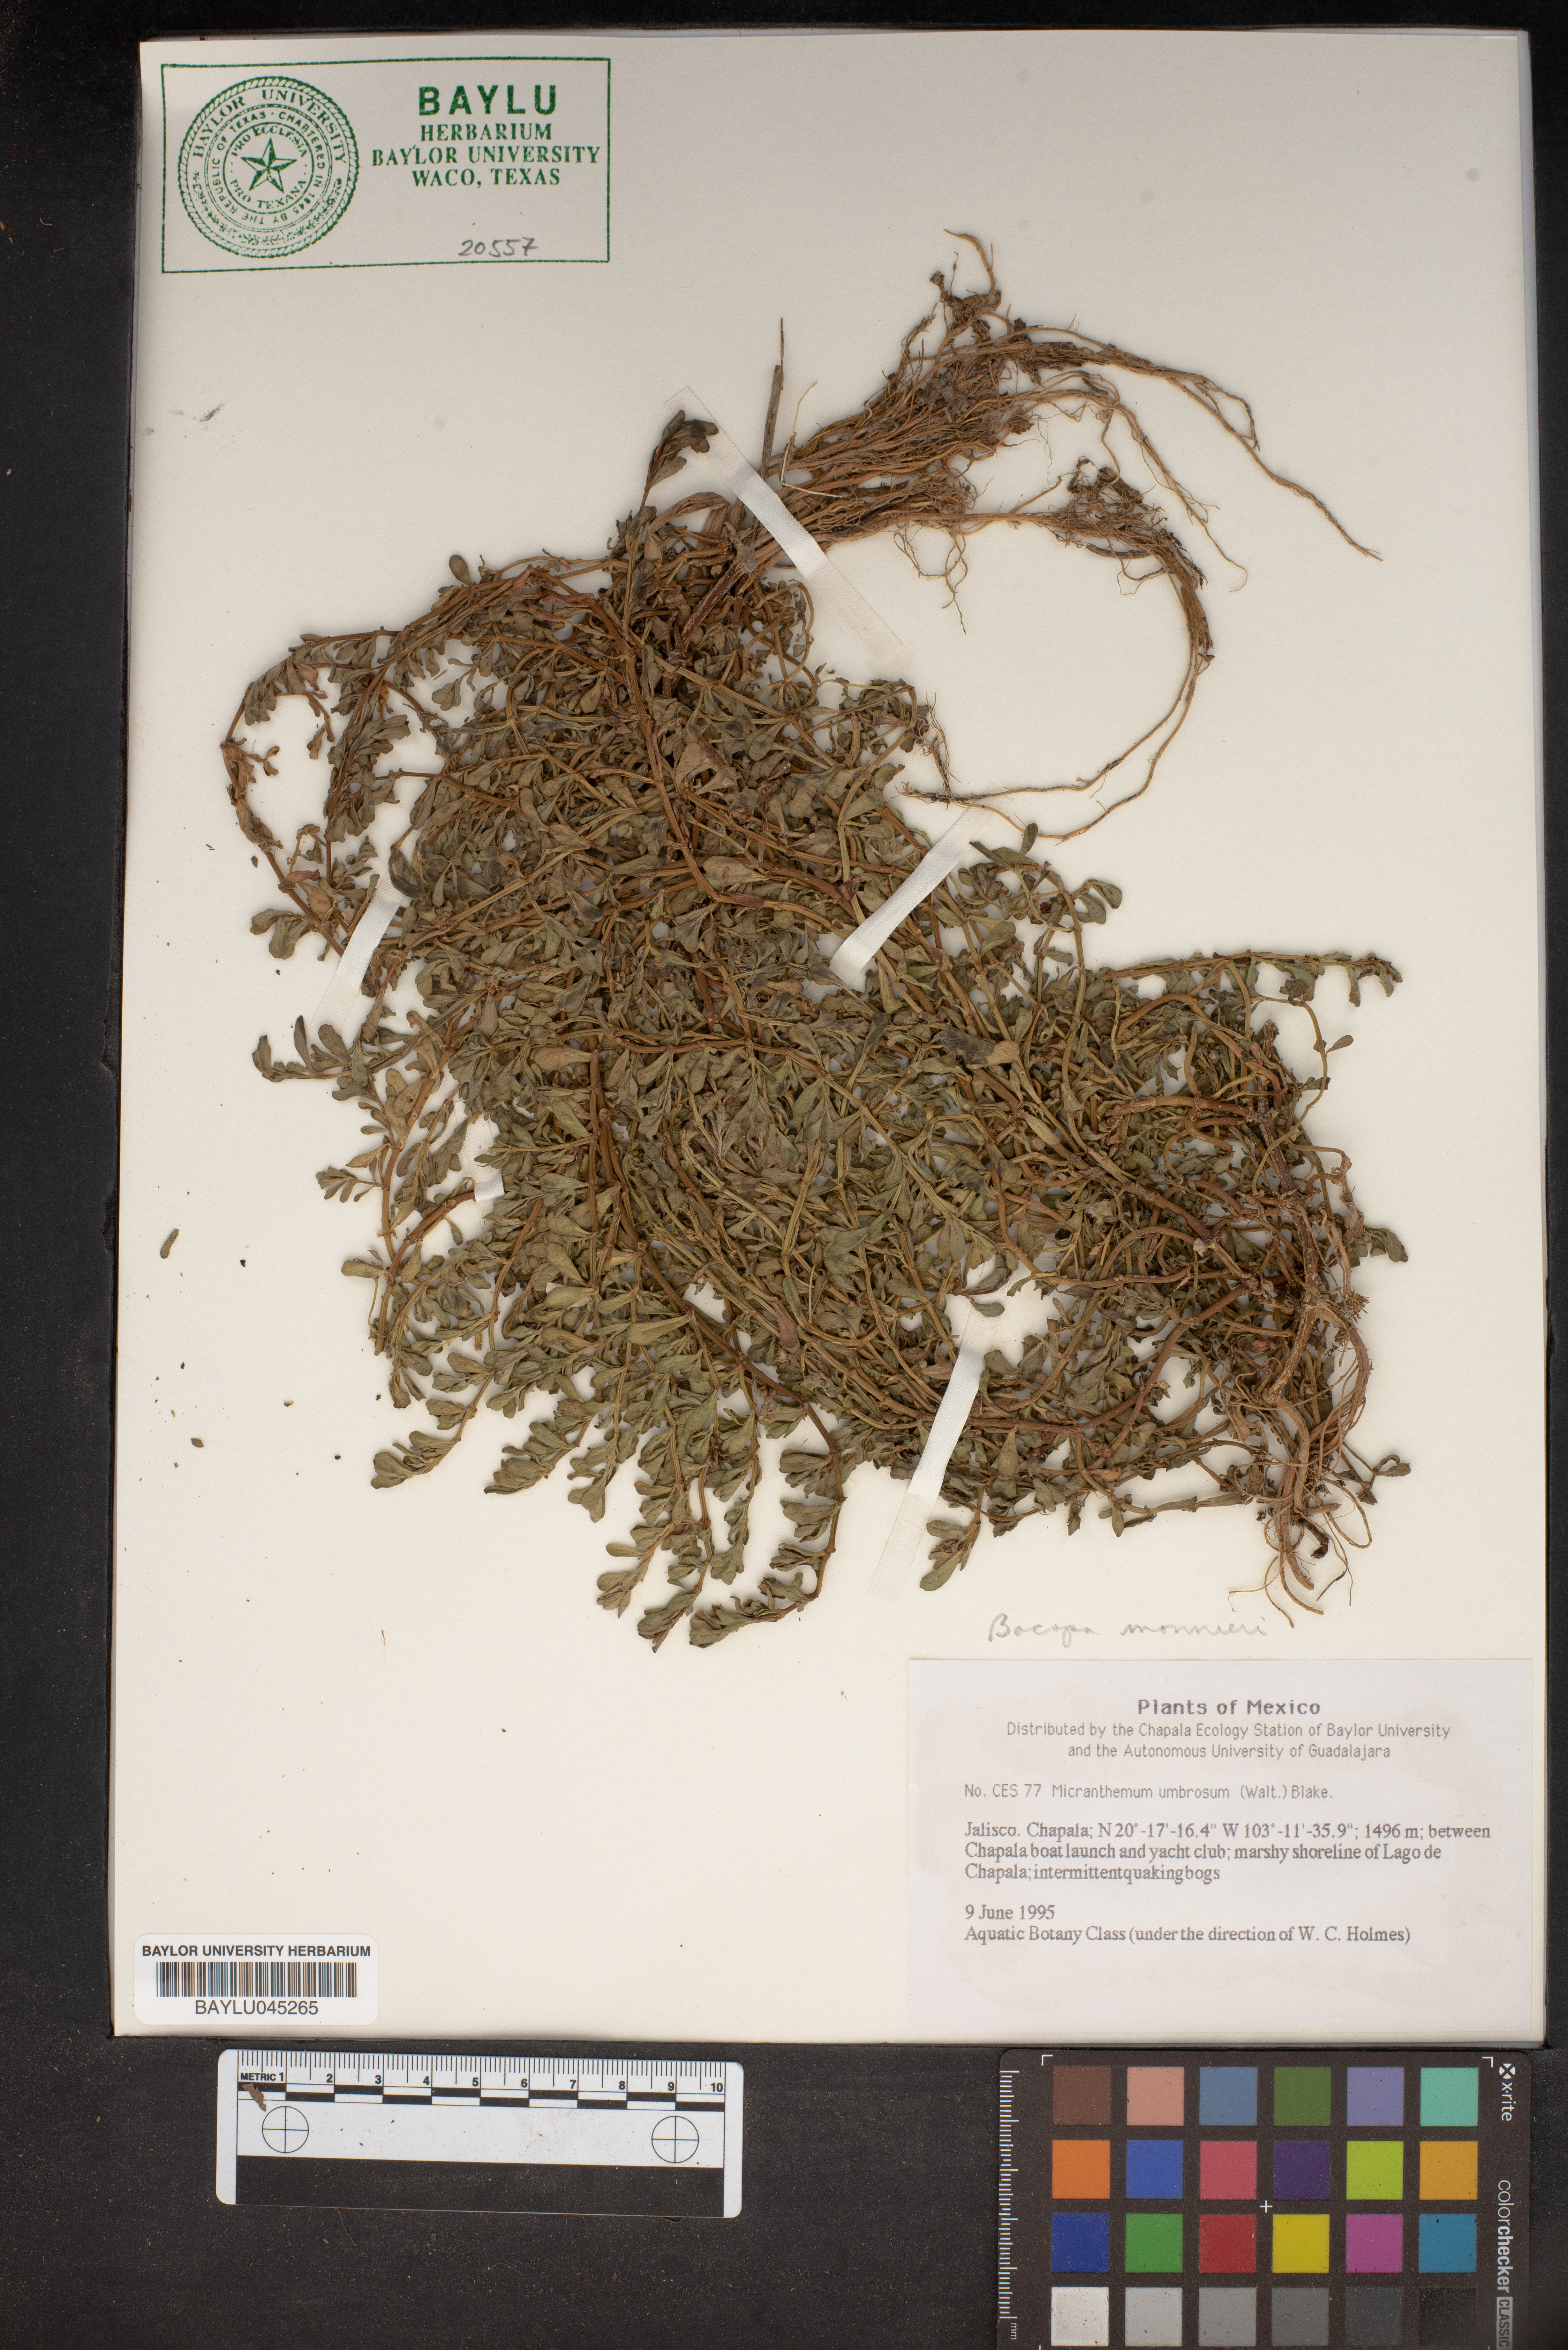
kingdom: Plantae
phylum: Tracheophyta
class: Magnoliopsida
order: Lamiales
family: Linderniaceae
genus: Micranthemum
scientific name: Micranthemum umbrosum
